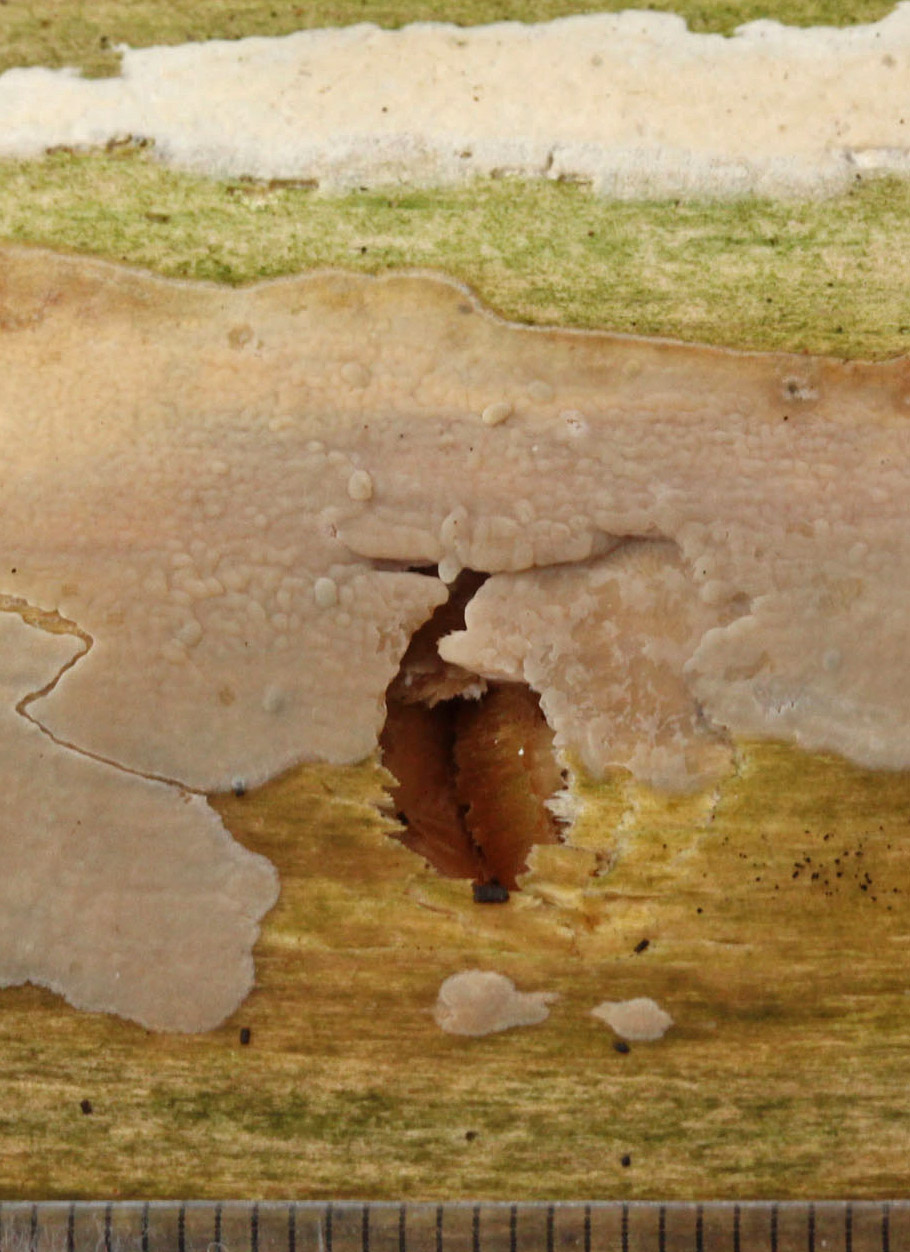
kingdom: Fungi
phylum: Basidiomycota
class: Agaricomycetes
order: Agaricales
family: Radulomycetaceae
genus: Radulomyces
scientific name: Radulomyces confluens
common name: glat naftalinskind
